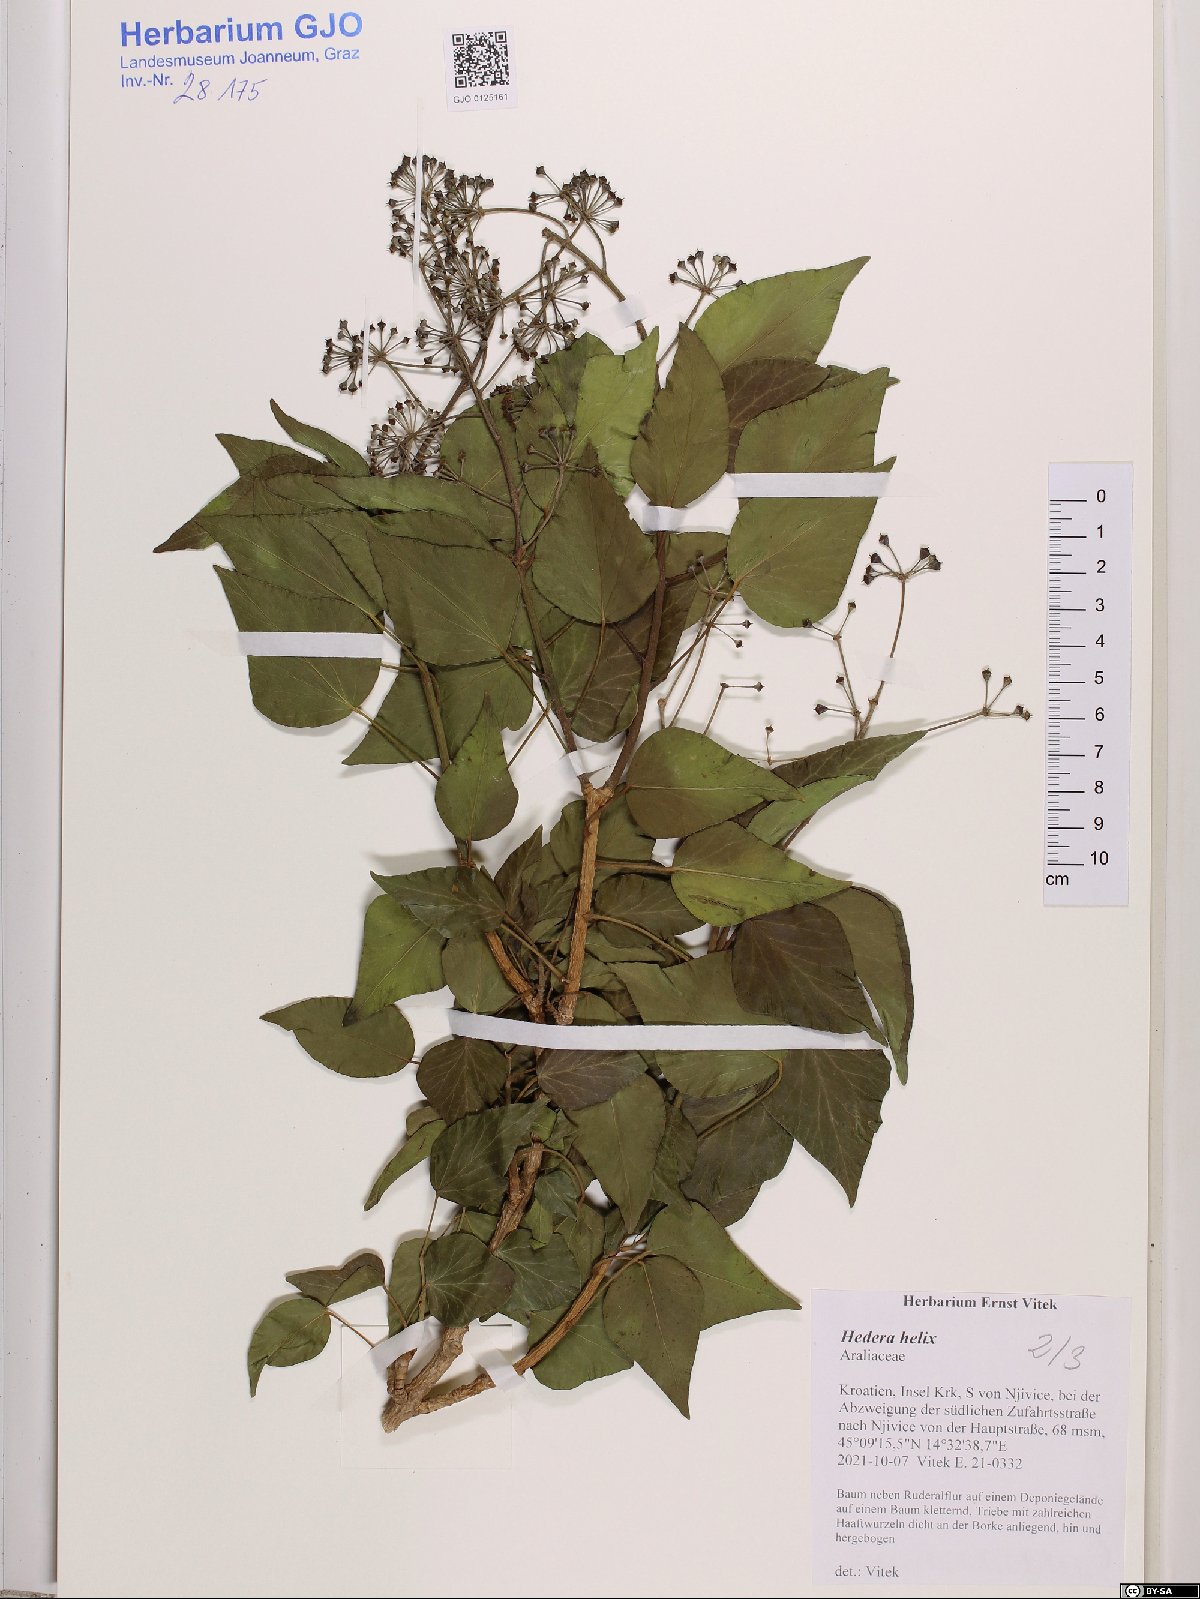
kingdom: Plantae
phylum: Tracheophyta
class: Magnoliopsida
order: Apiales
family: Araliaceae
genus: Hedera
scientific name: Hedera helix
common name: Ivy
